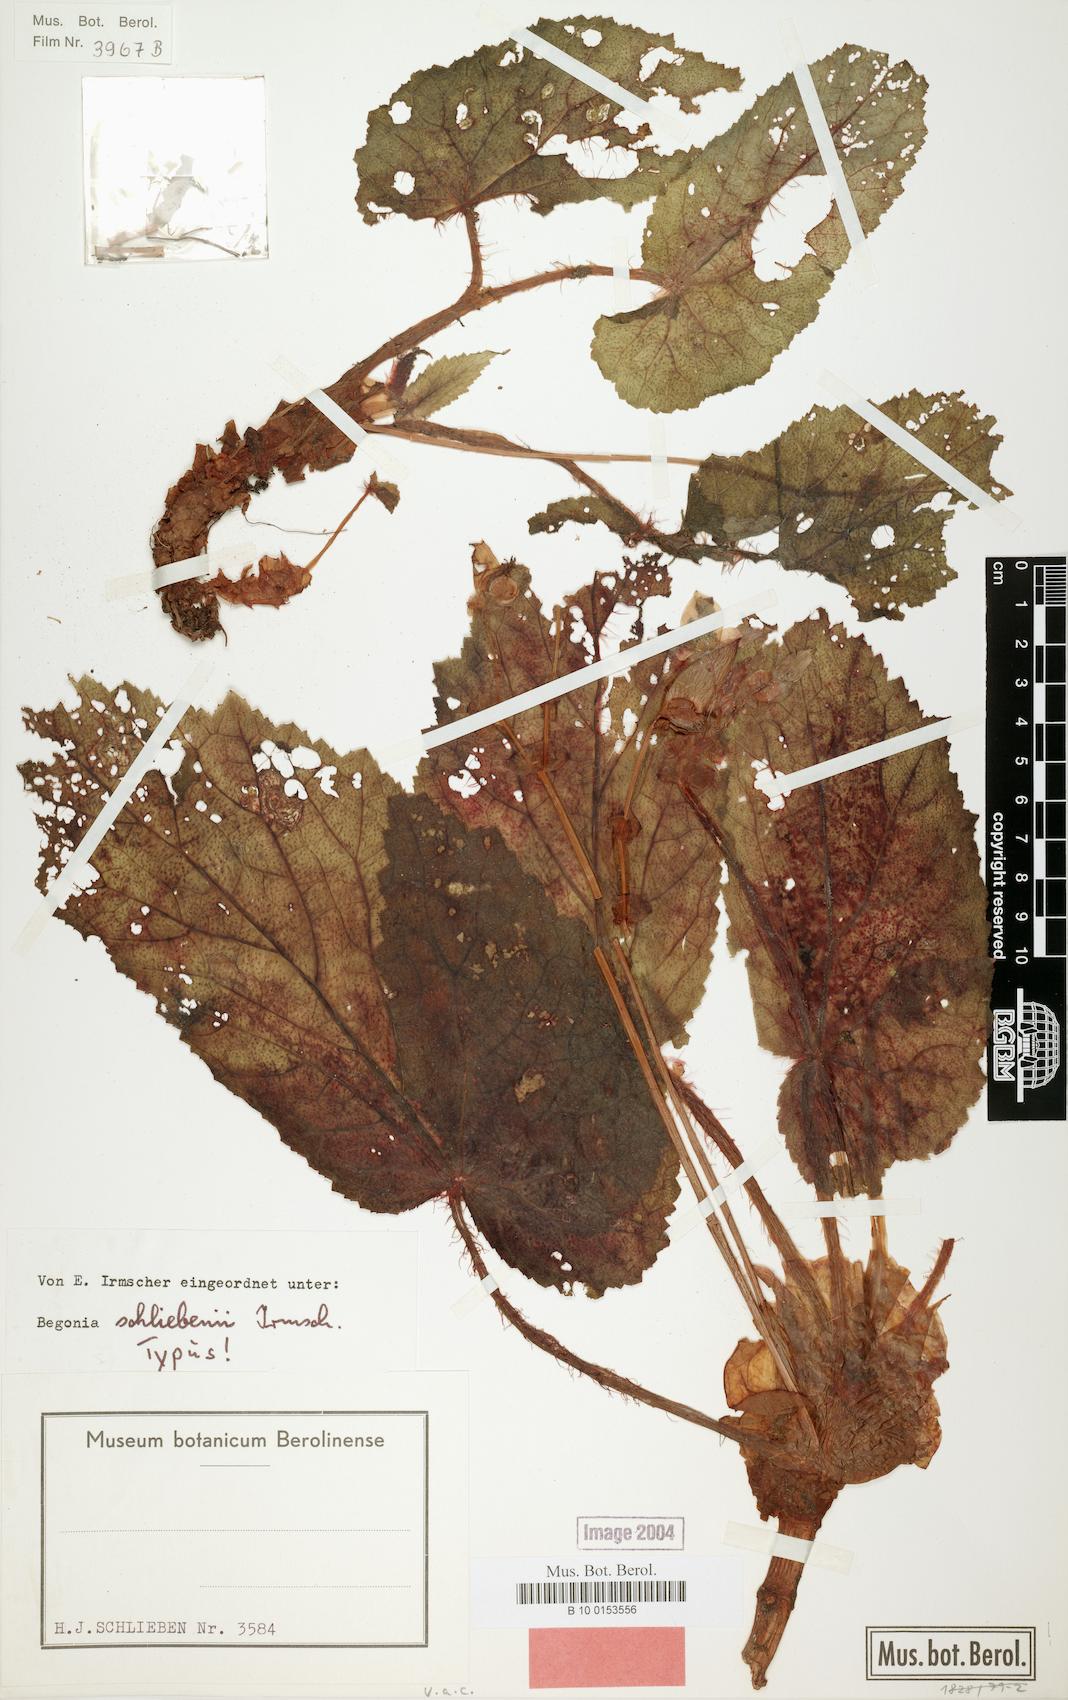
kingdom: Plantae
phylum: Tracheophyta
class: Magnoliopsida
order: Cucurbitales
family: Begoniaceae
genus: Begonia
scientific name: Begonia schliebenii
